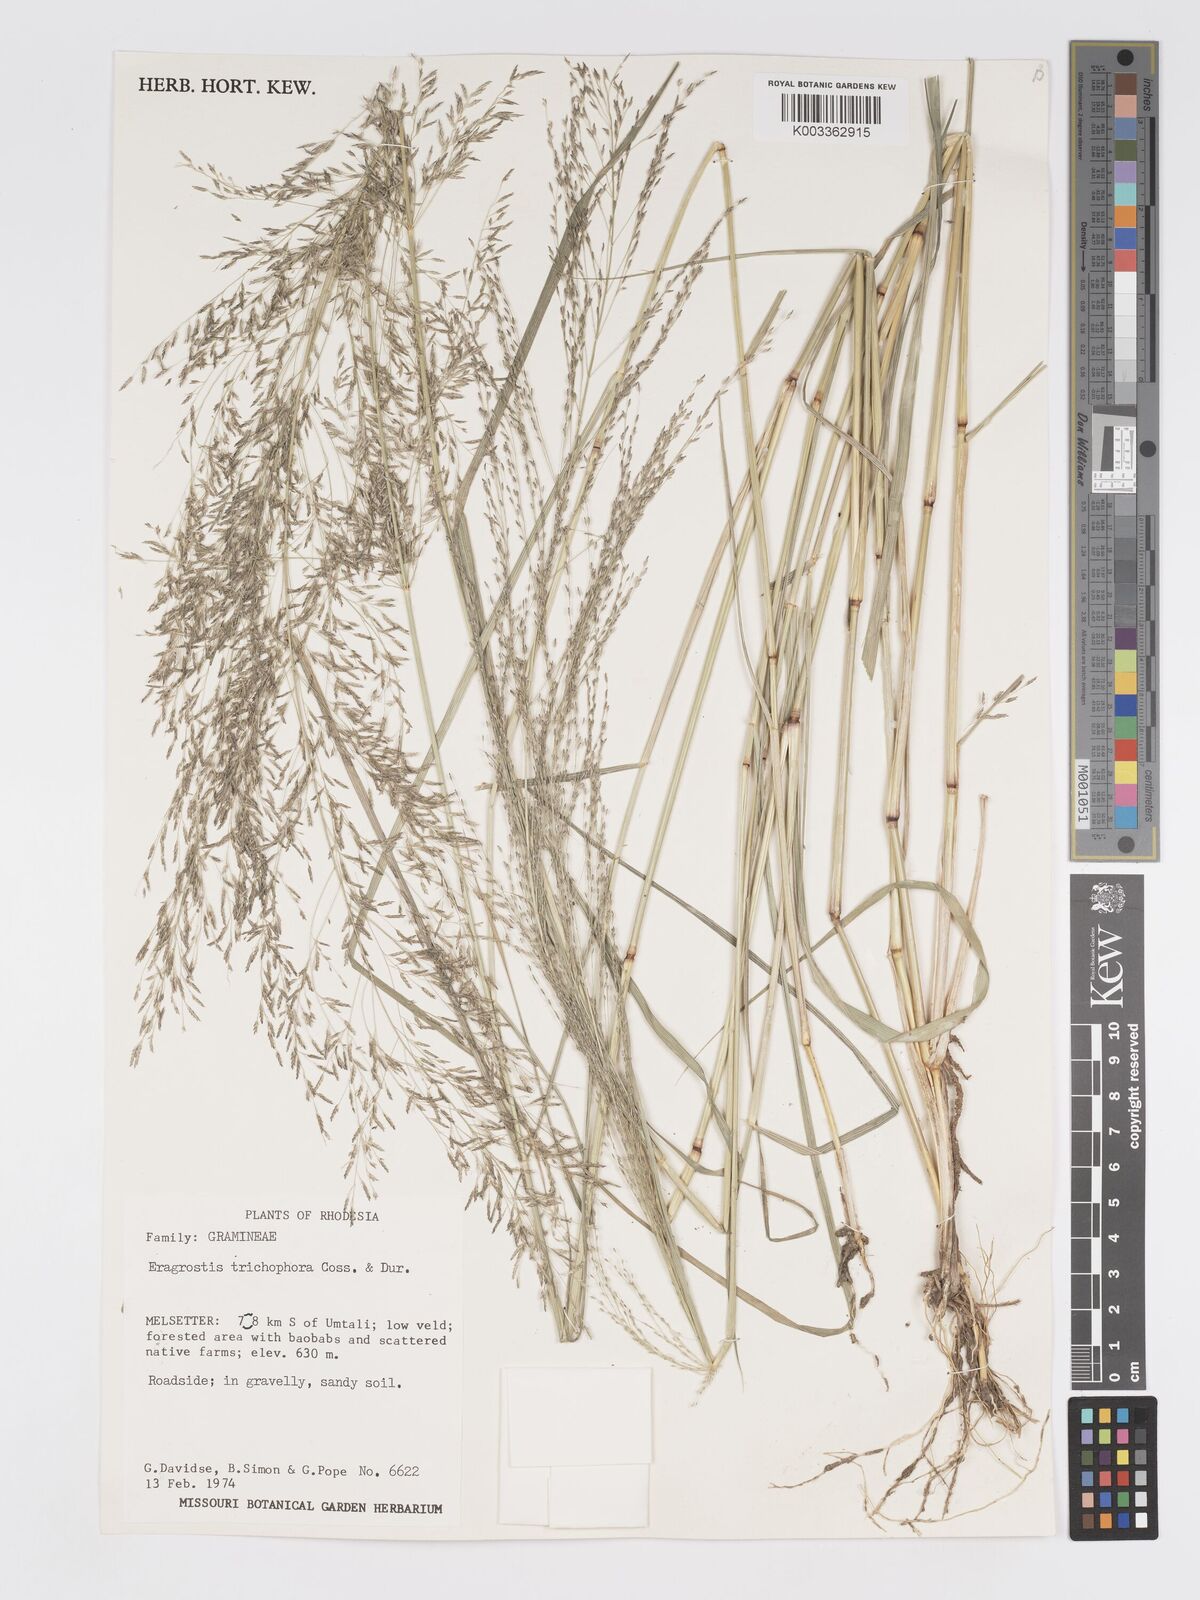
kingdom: Plantae
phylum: Tracheophyta
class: Liliopsida
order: Poales
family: Poaceae
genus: Eragrostis
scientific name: Eragrostis cylindriflora
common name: Cylinderflower lovegrass
